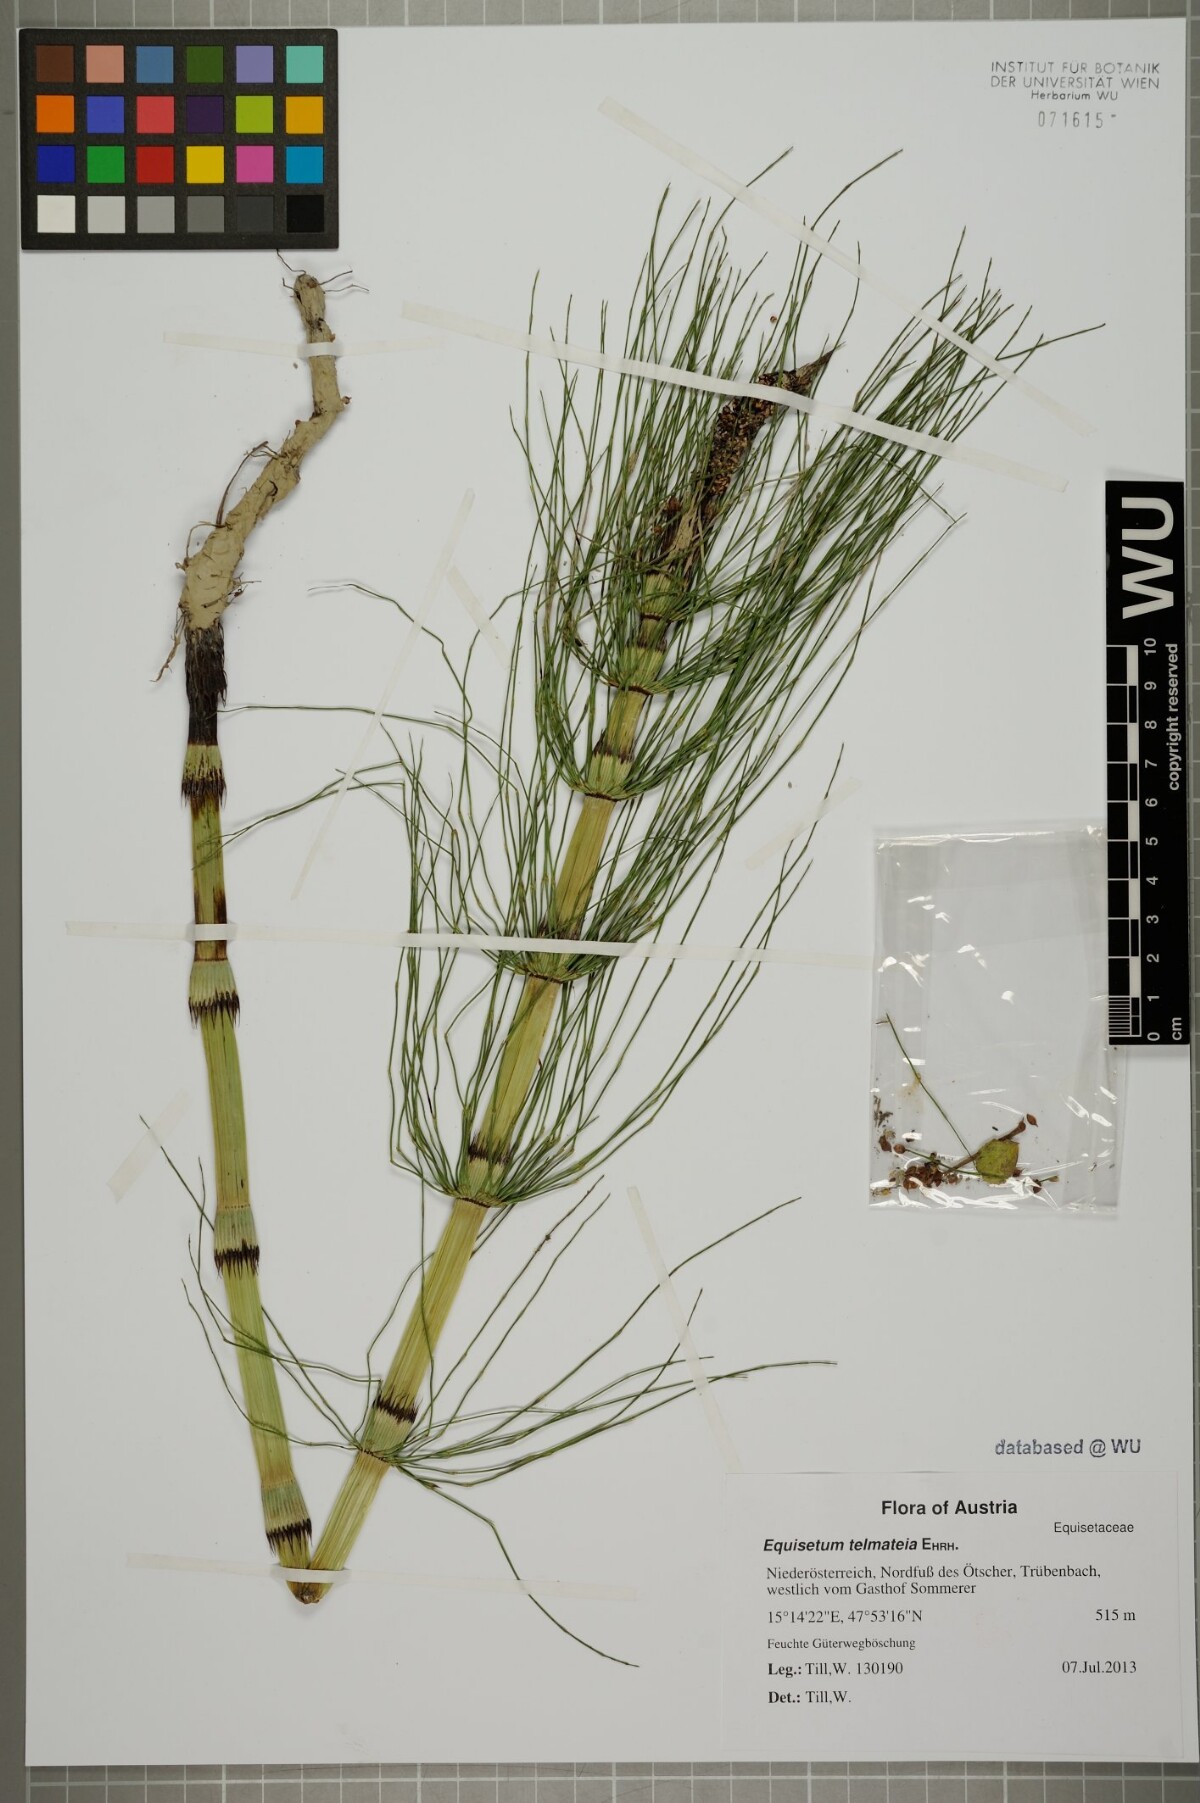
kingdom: Plantae
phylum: Tracheophyta
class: Polypodiopsida
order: Equisetales
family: Equisetaceae
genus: Equisetum
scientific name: Equisetum telmateia
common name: Great horsetail
